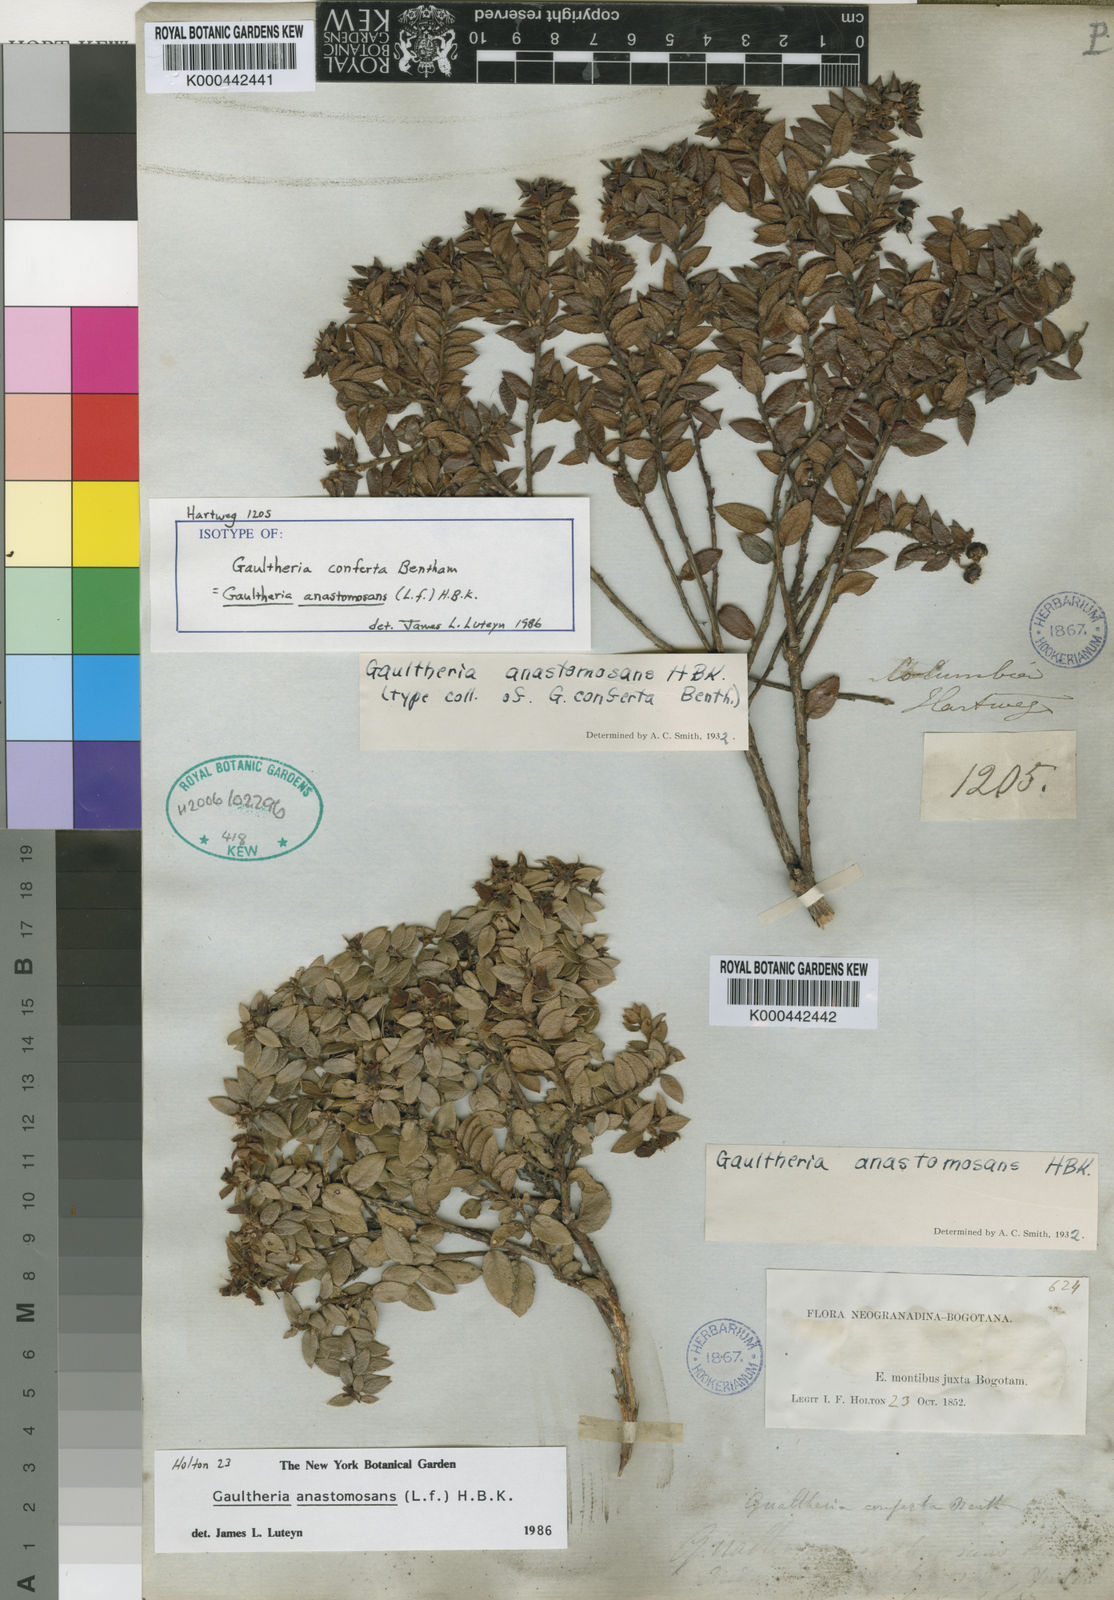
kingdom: Plantae
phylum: Tracheophyta
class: Magnoliopsida
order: Ericales
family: Ericaceae
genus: Gaultheria
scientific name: Gaultheria
